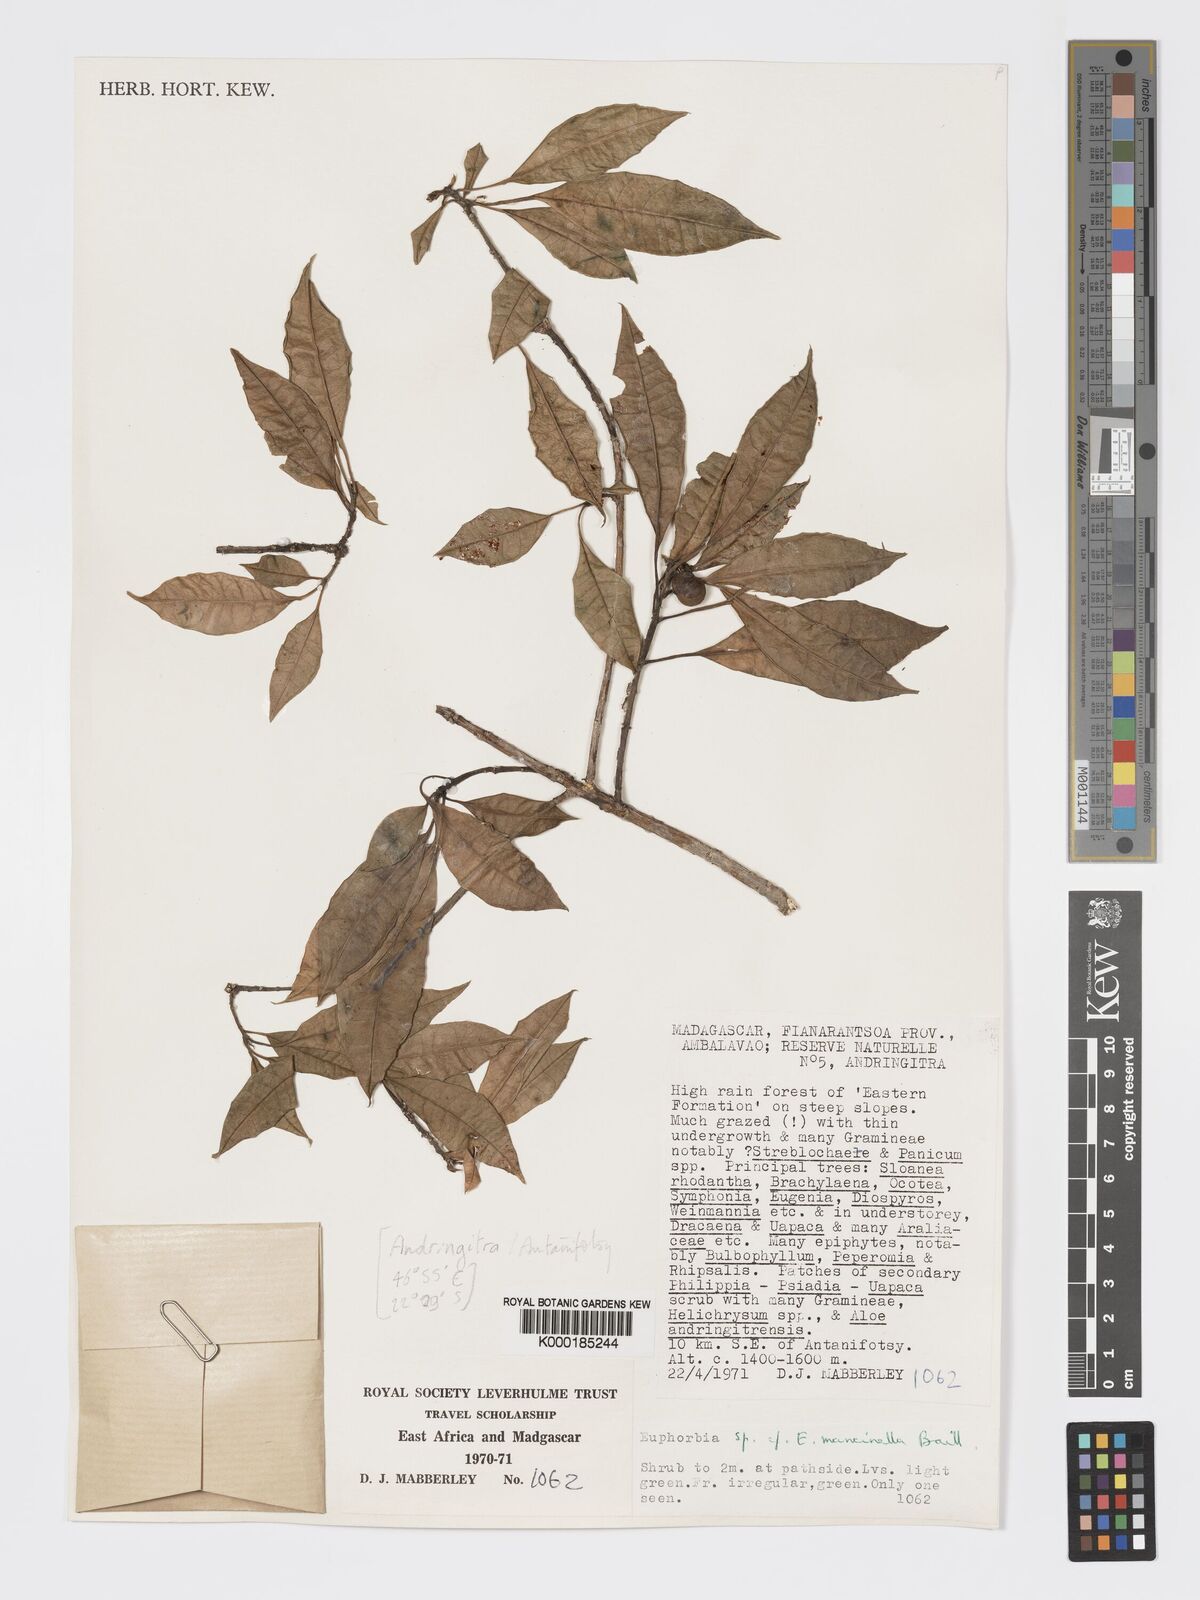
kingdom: Plantae
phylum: Tracheophyta
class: Magnoliopsida
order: Malpighiales
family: Euphorbiaceae
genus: Euphorbia
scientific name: Euphorbia adenopoda
